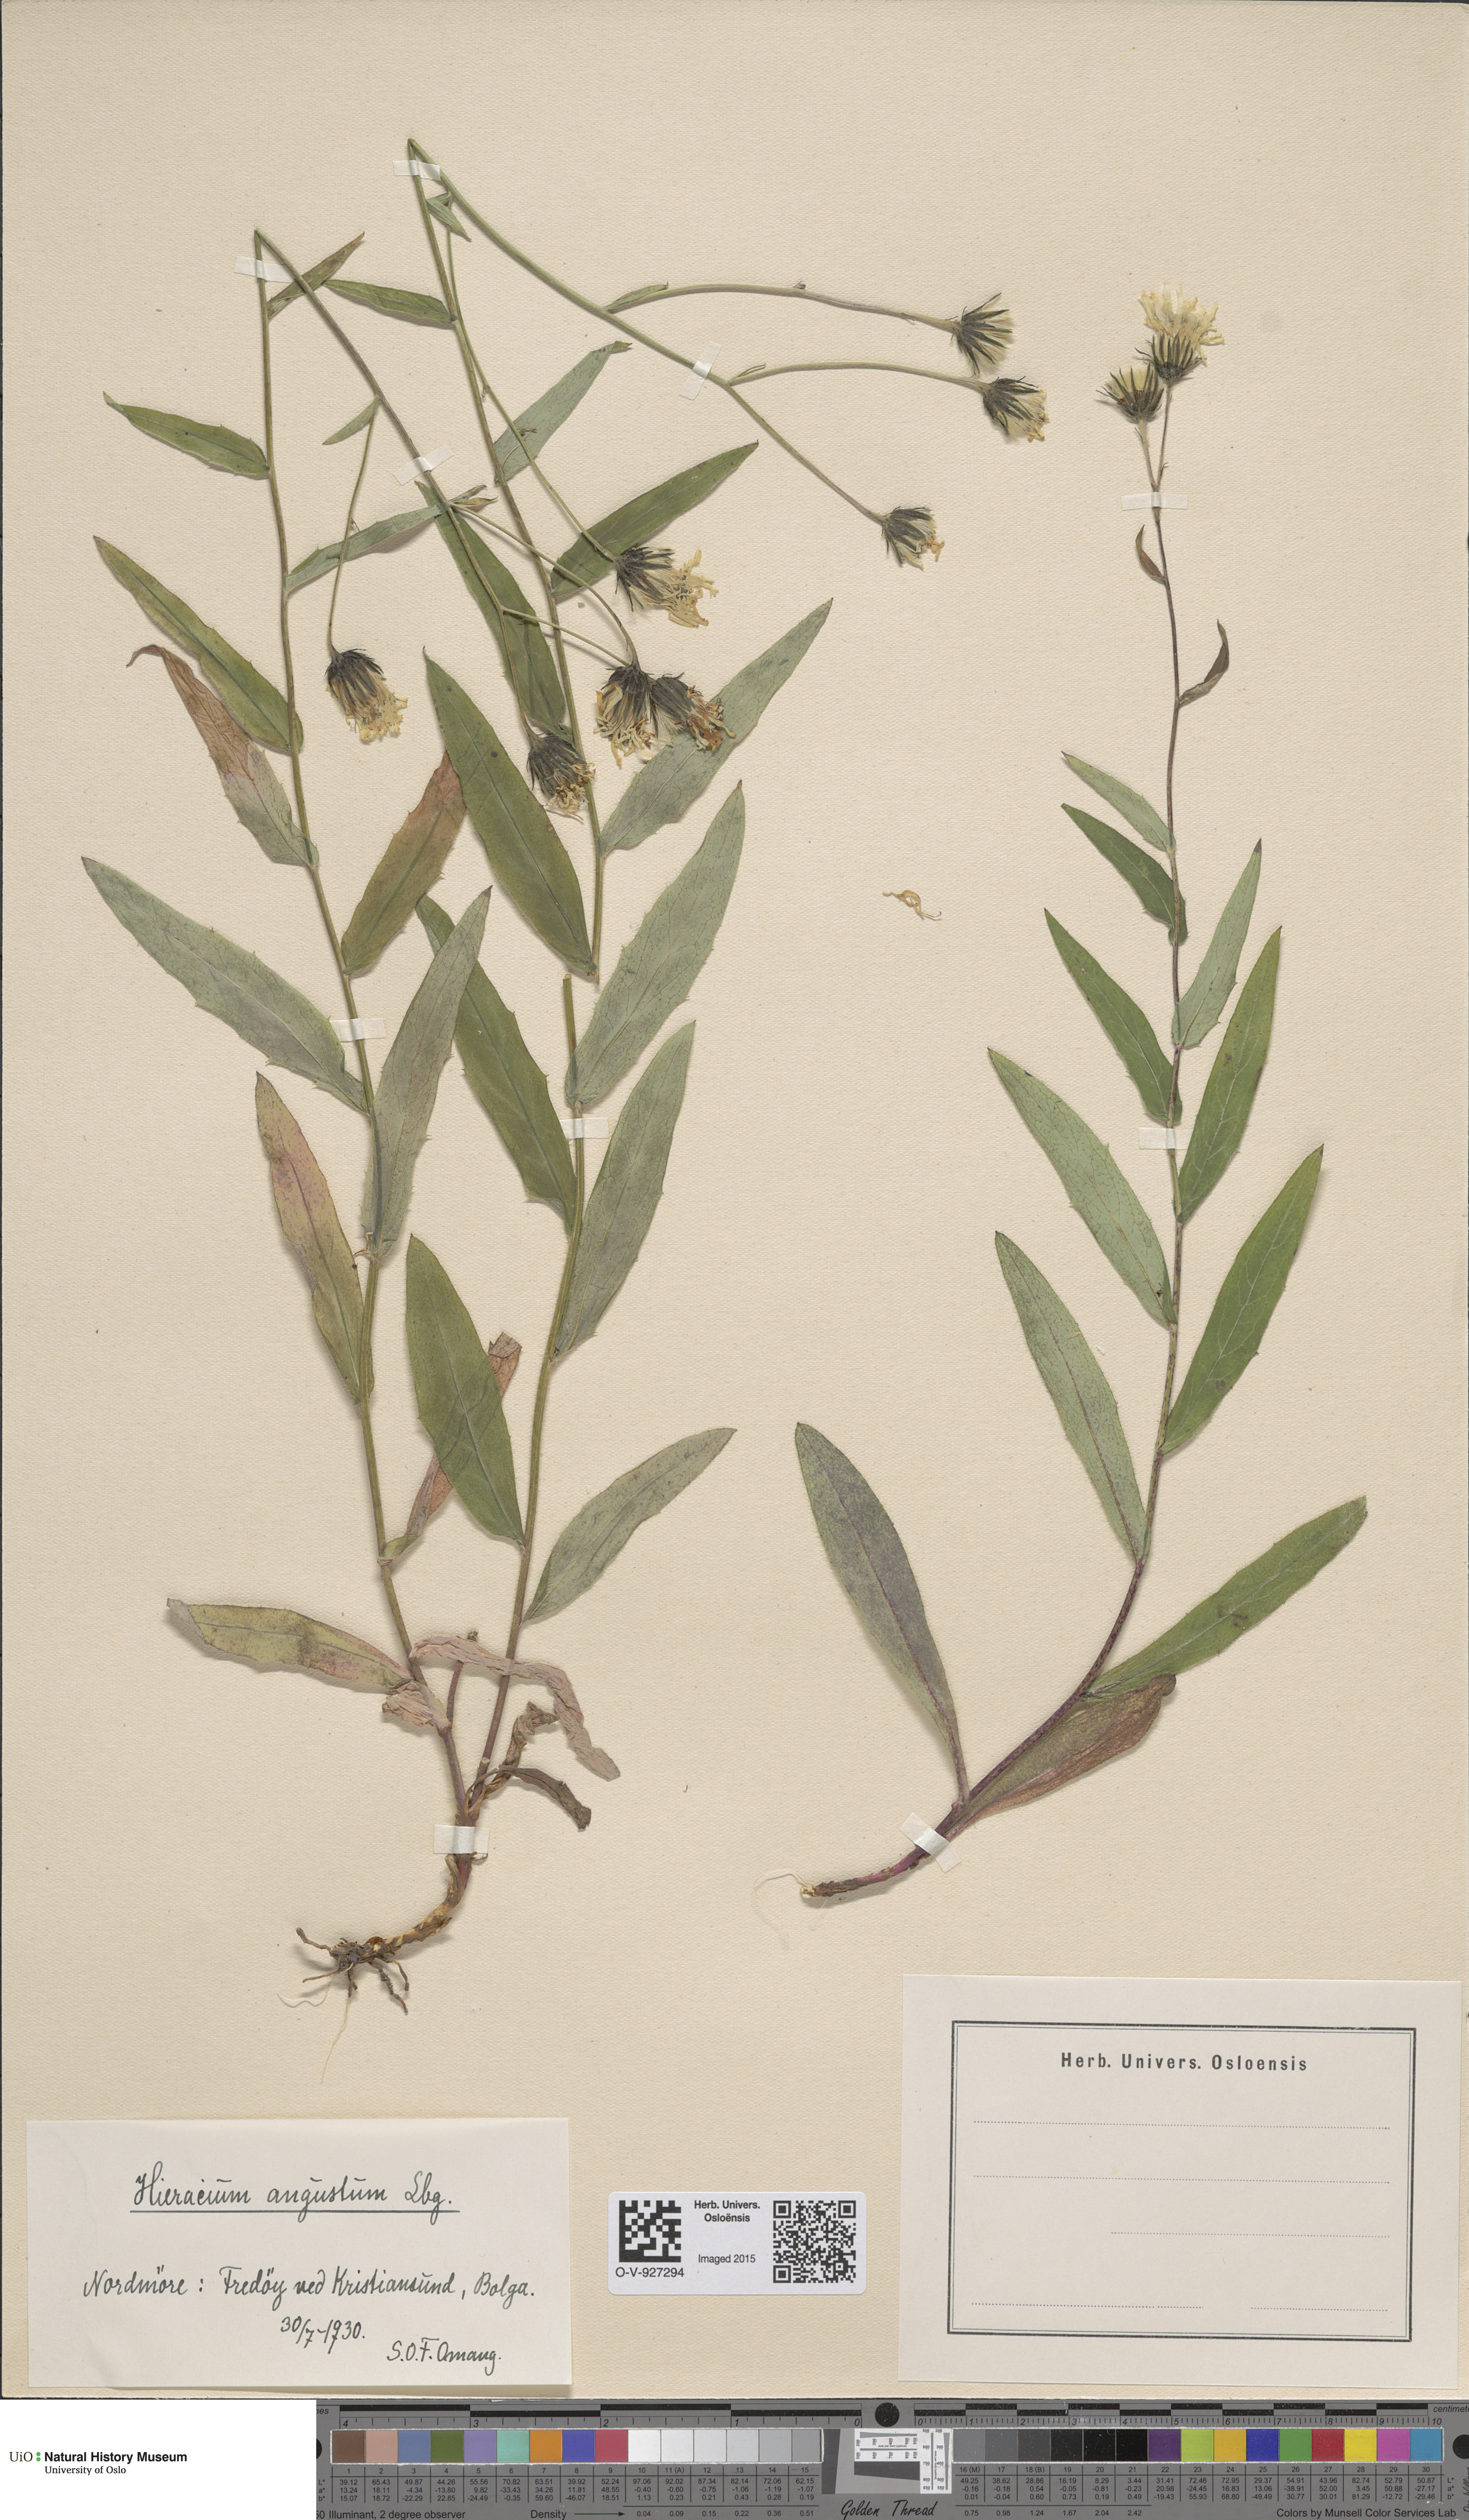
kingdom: Plantae
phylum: Tracheophyta
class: Magnoliopsida
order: Asterales
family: Asteraceae
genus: Hieracium
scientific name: Hieracium angustum
